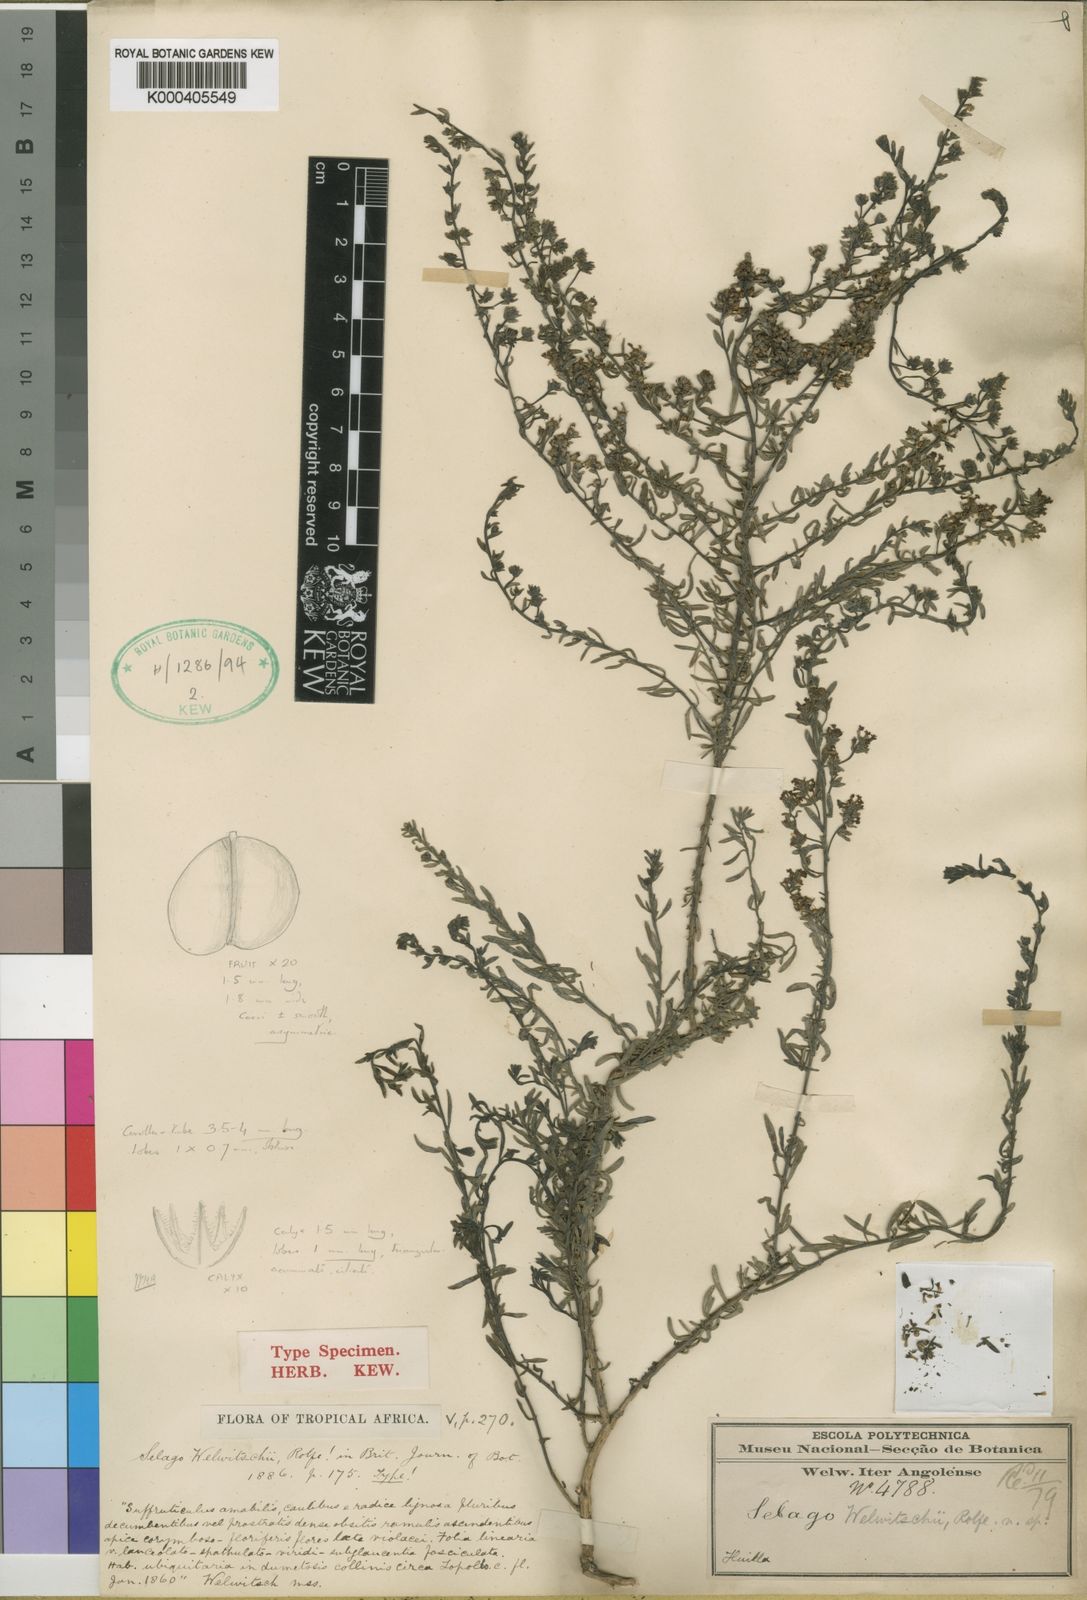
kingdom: Plantae
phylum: Tracheophyta
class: Magnoliopsida
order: Lamiales
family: Scrophulariaceae
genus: Selago
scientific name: Selago welwitschii
